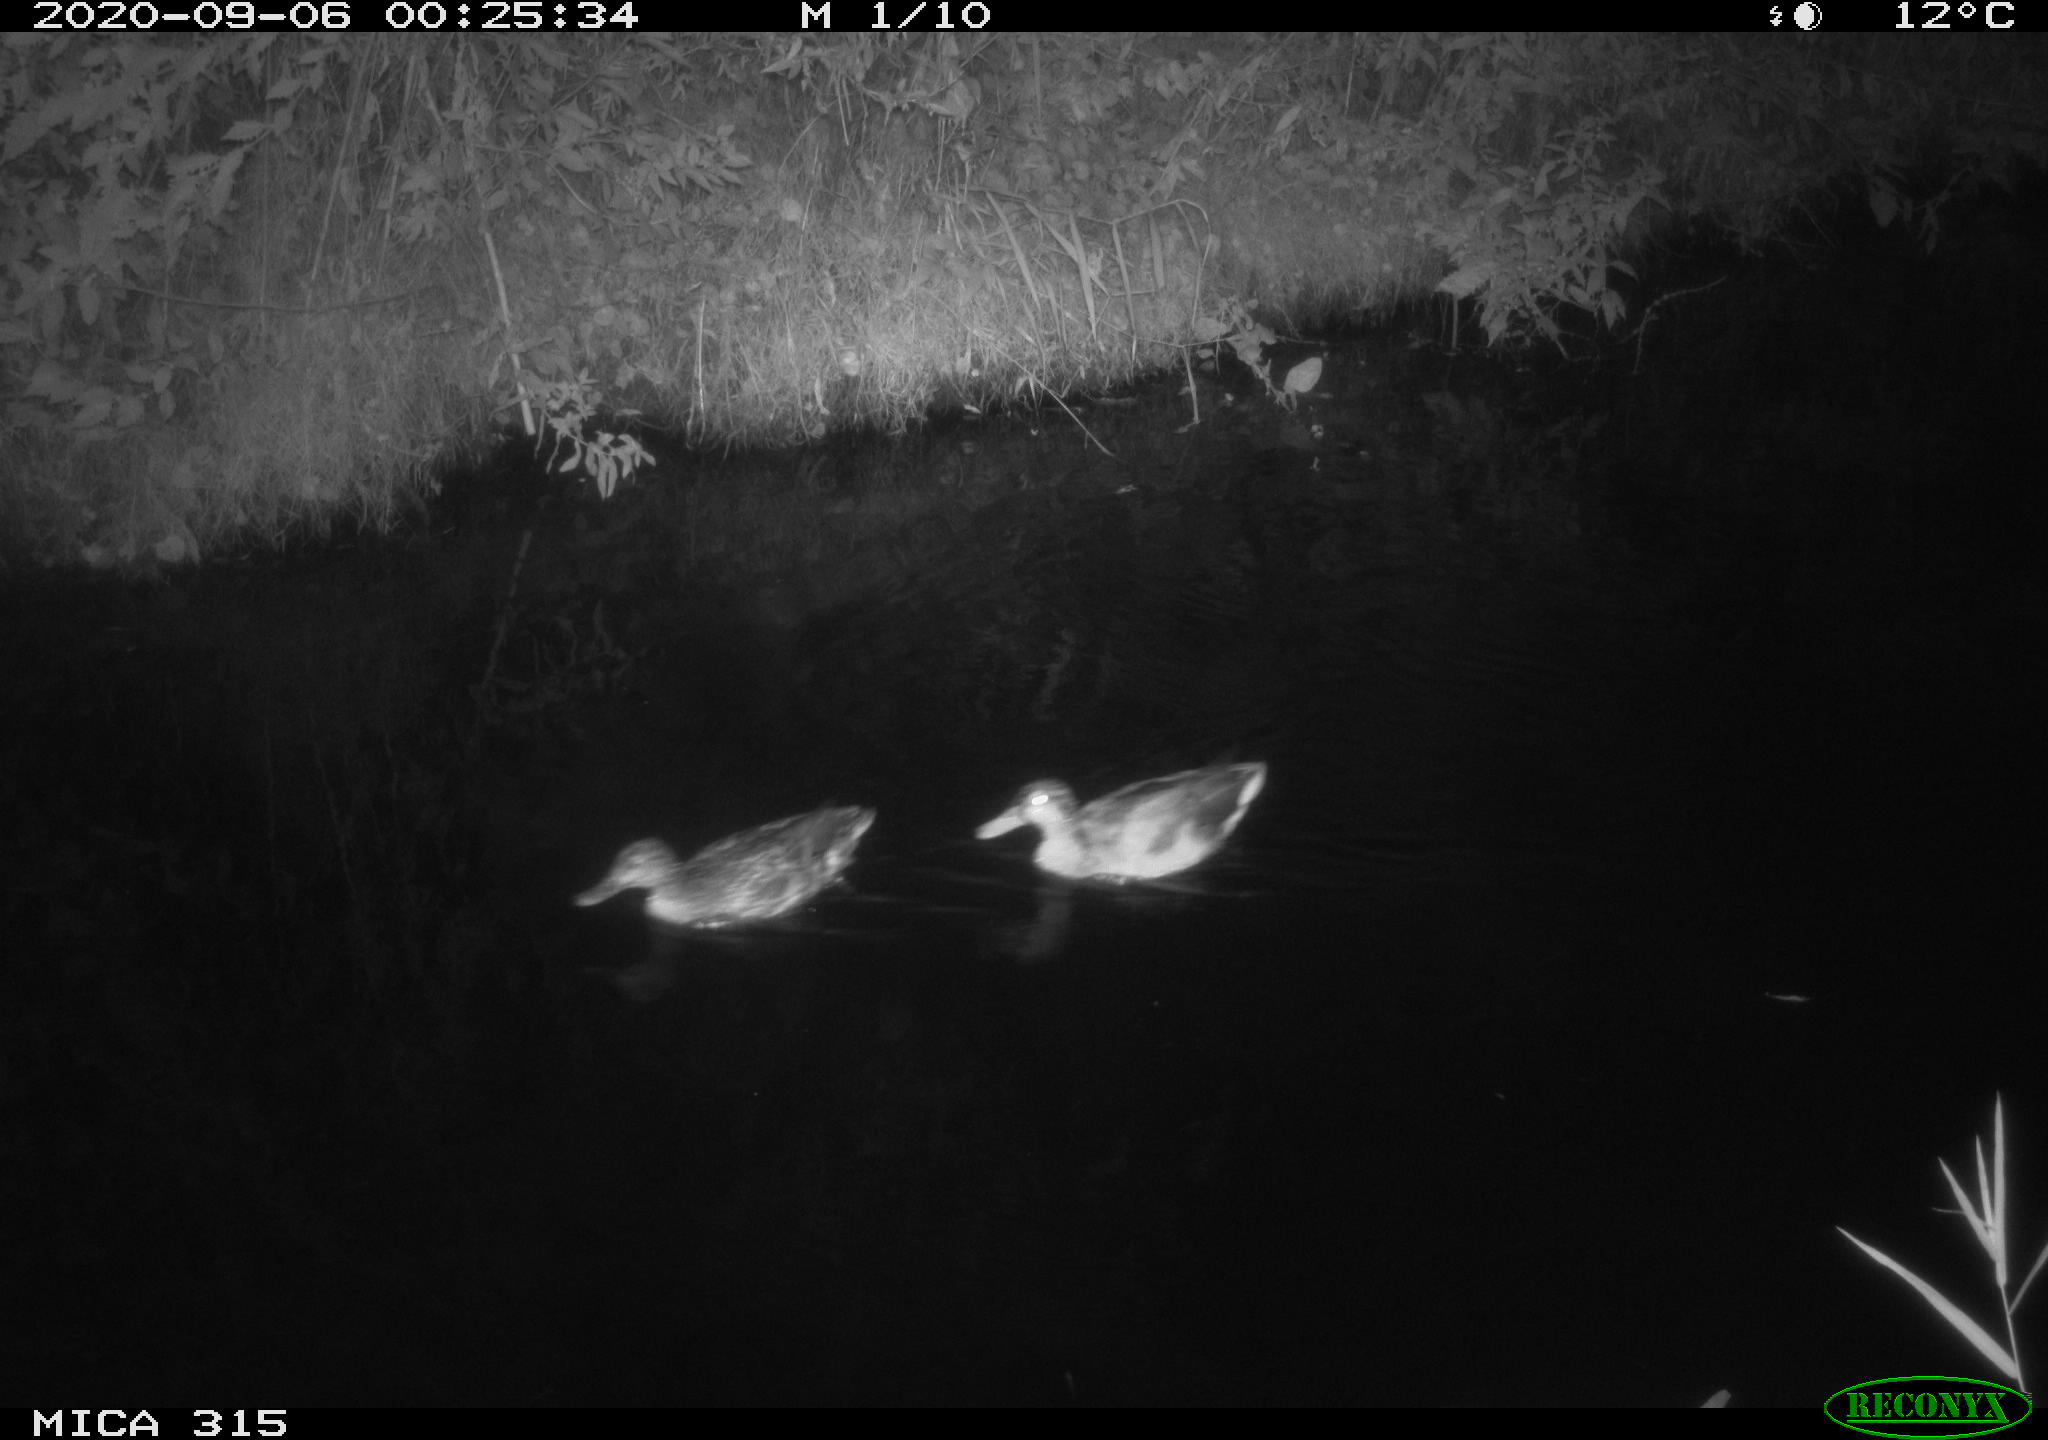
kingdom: Animalia
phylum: Chordata
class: Aves
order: Anseriformes
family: Anatidae
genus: Anas
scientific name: Anas platyrhynchos
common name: Mallard
